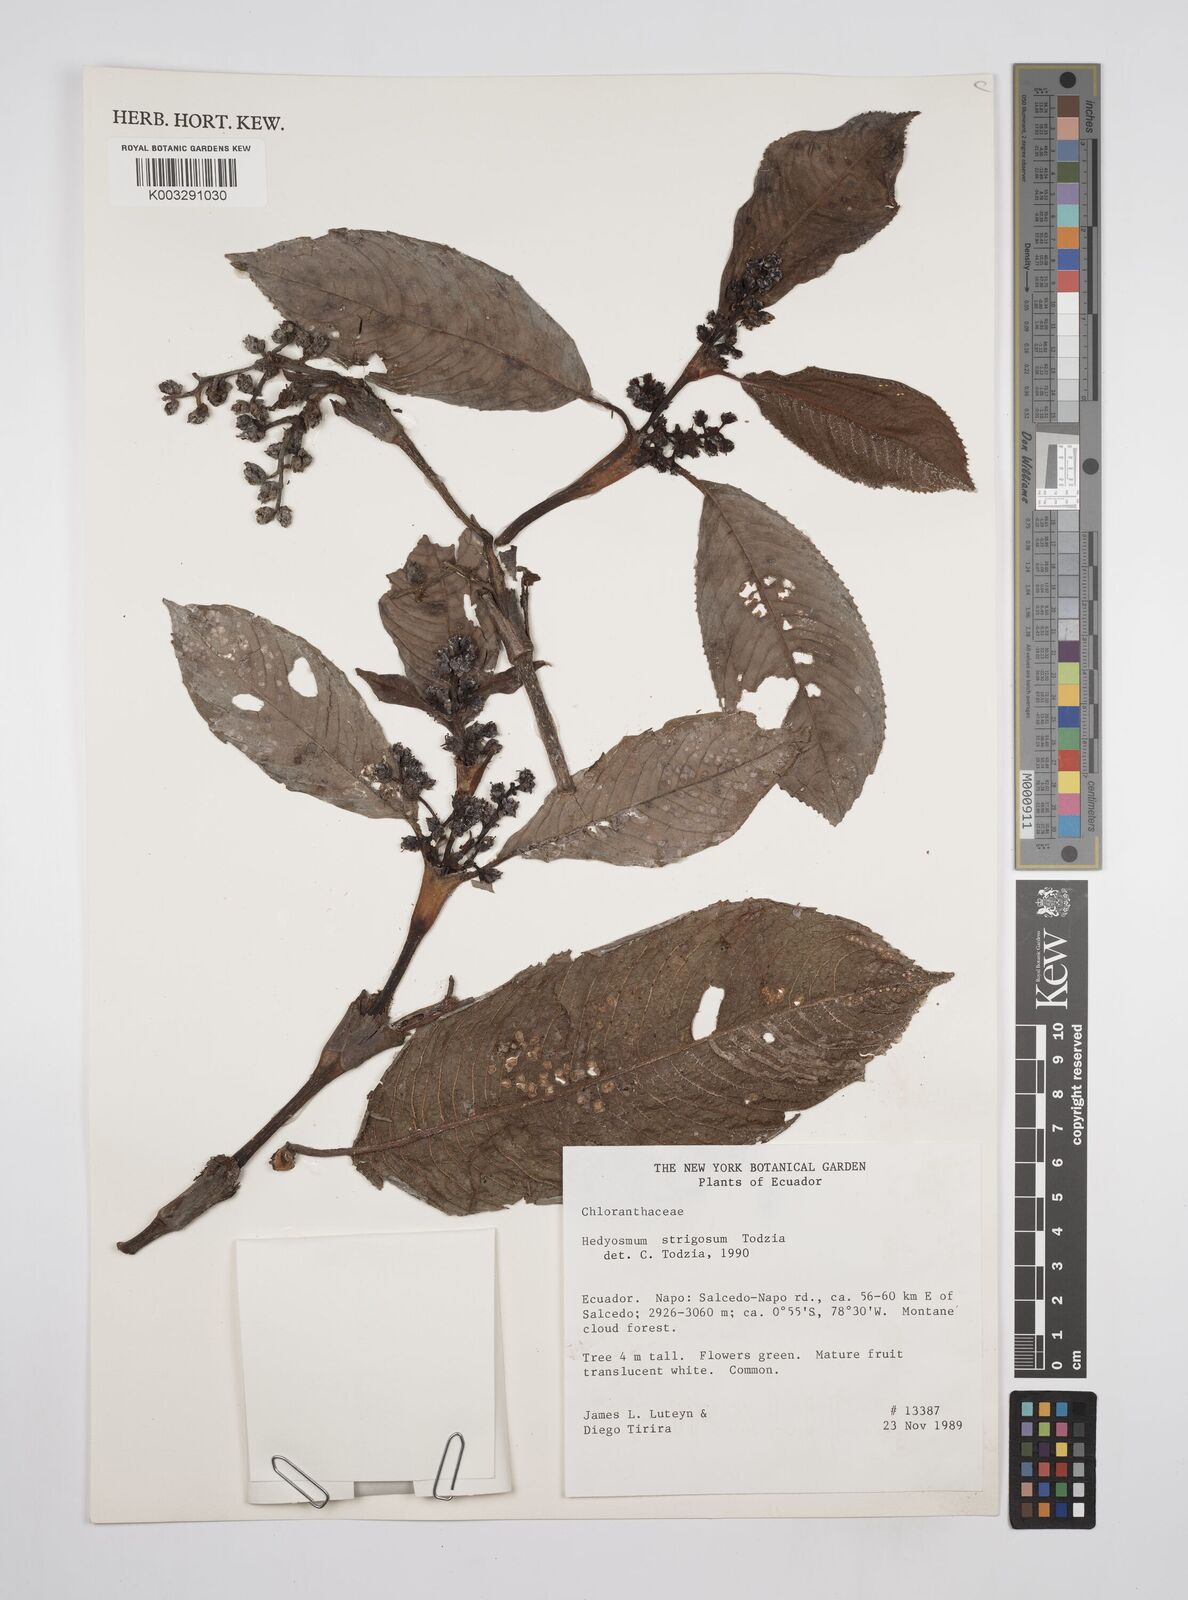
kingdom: Plantae
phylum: Tracheophyta
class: Magnoliopsida
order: Chloranthales
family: Chloranthaceae
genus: Hedyosmum
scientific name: Hedyosmum strigosum
